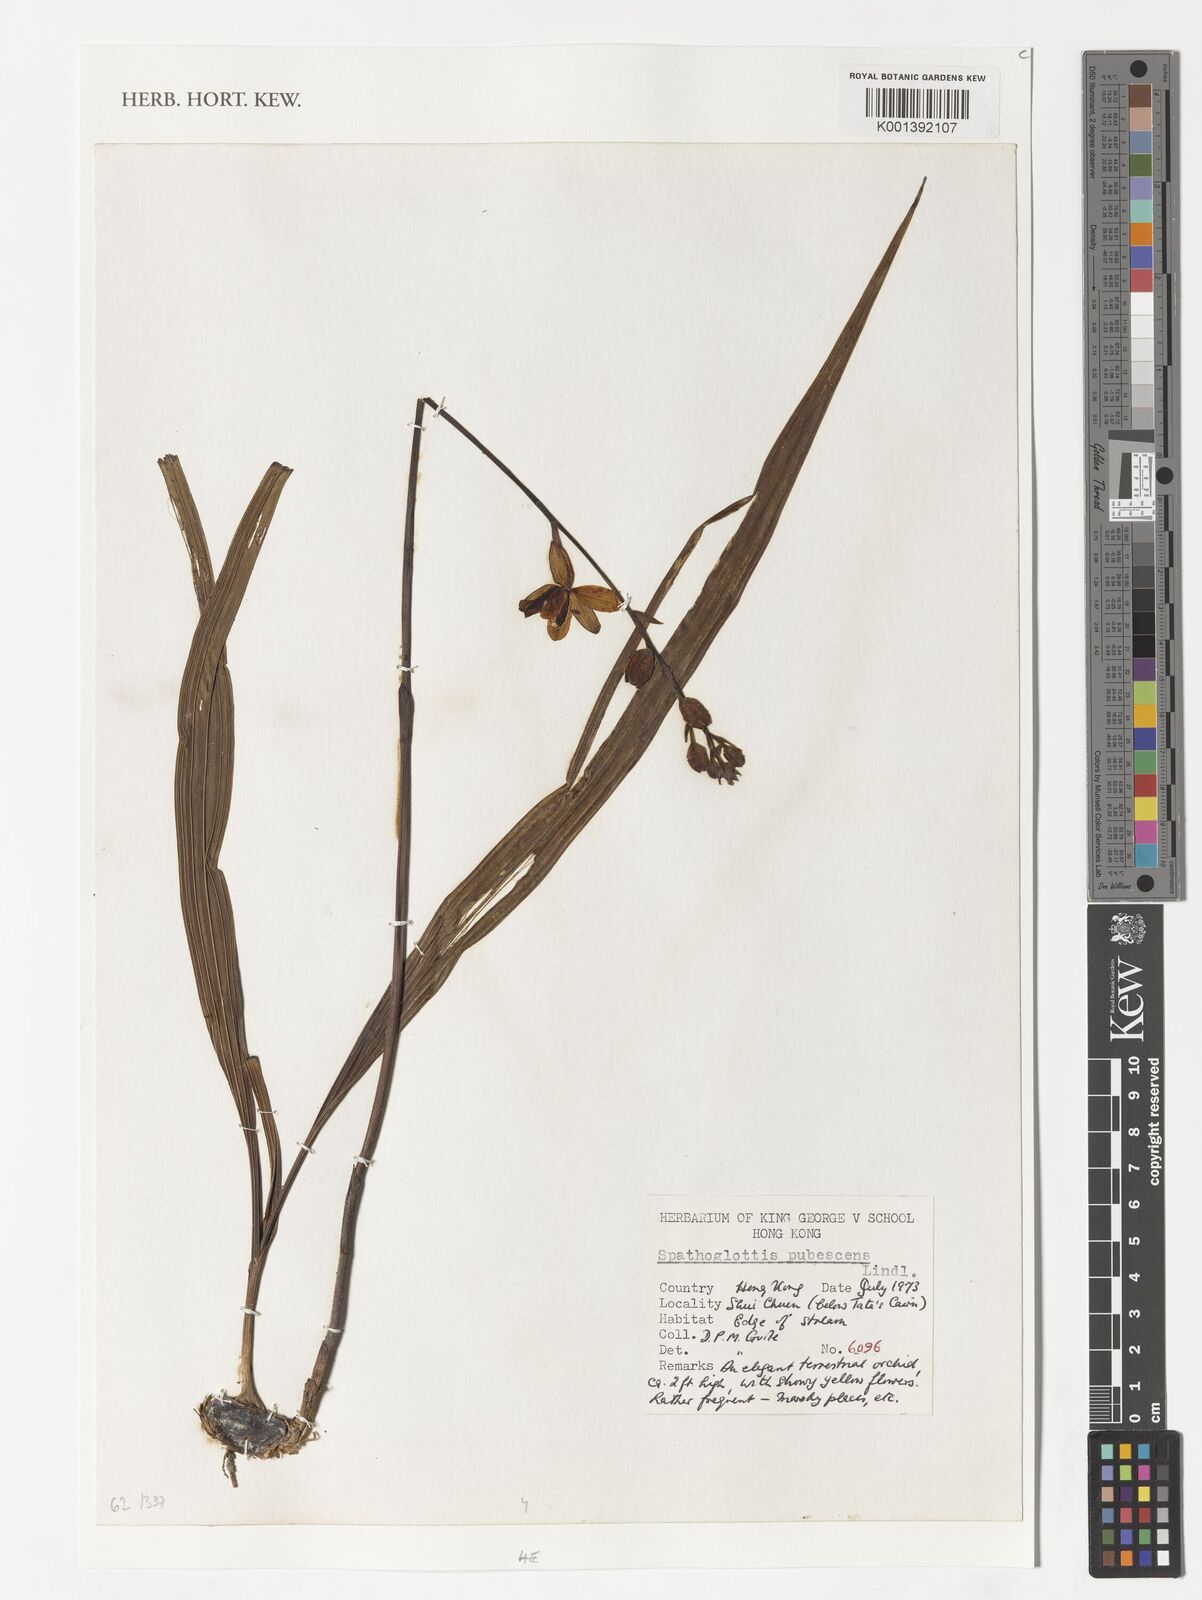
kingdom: Plantae
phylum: Tracheophyta
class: Liliopsida
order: Asparagales
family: Orchidaceae
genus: Spathoglottis
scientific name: Spathoglottis pubescens
